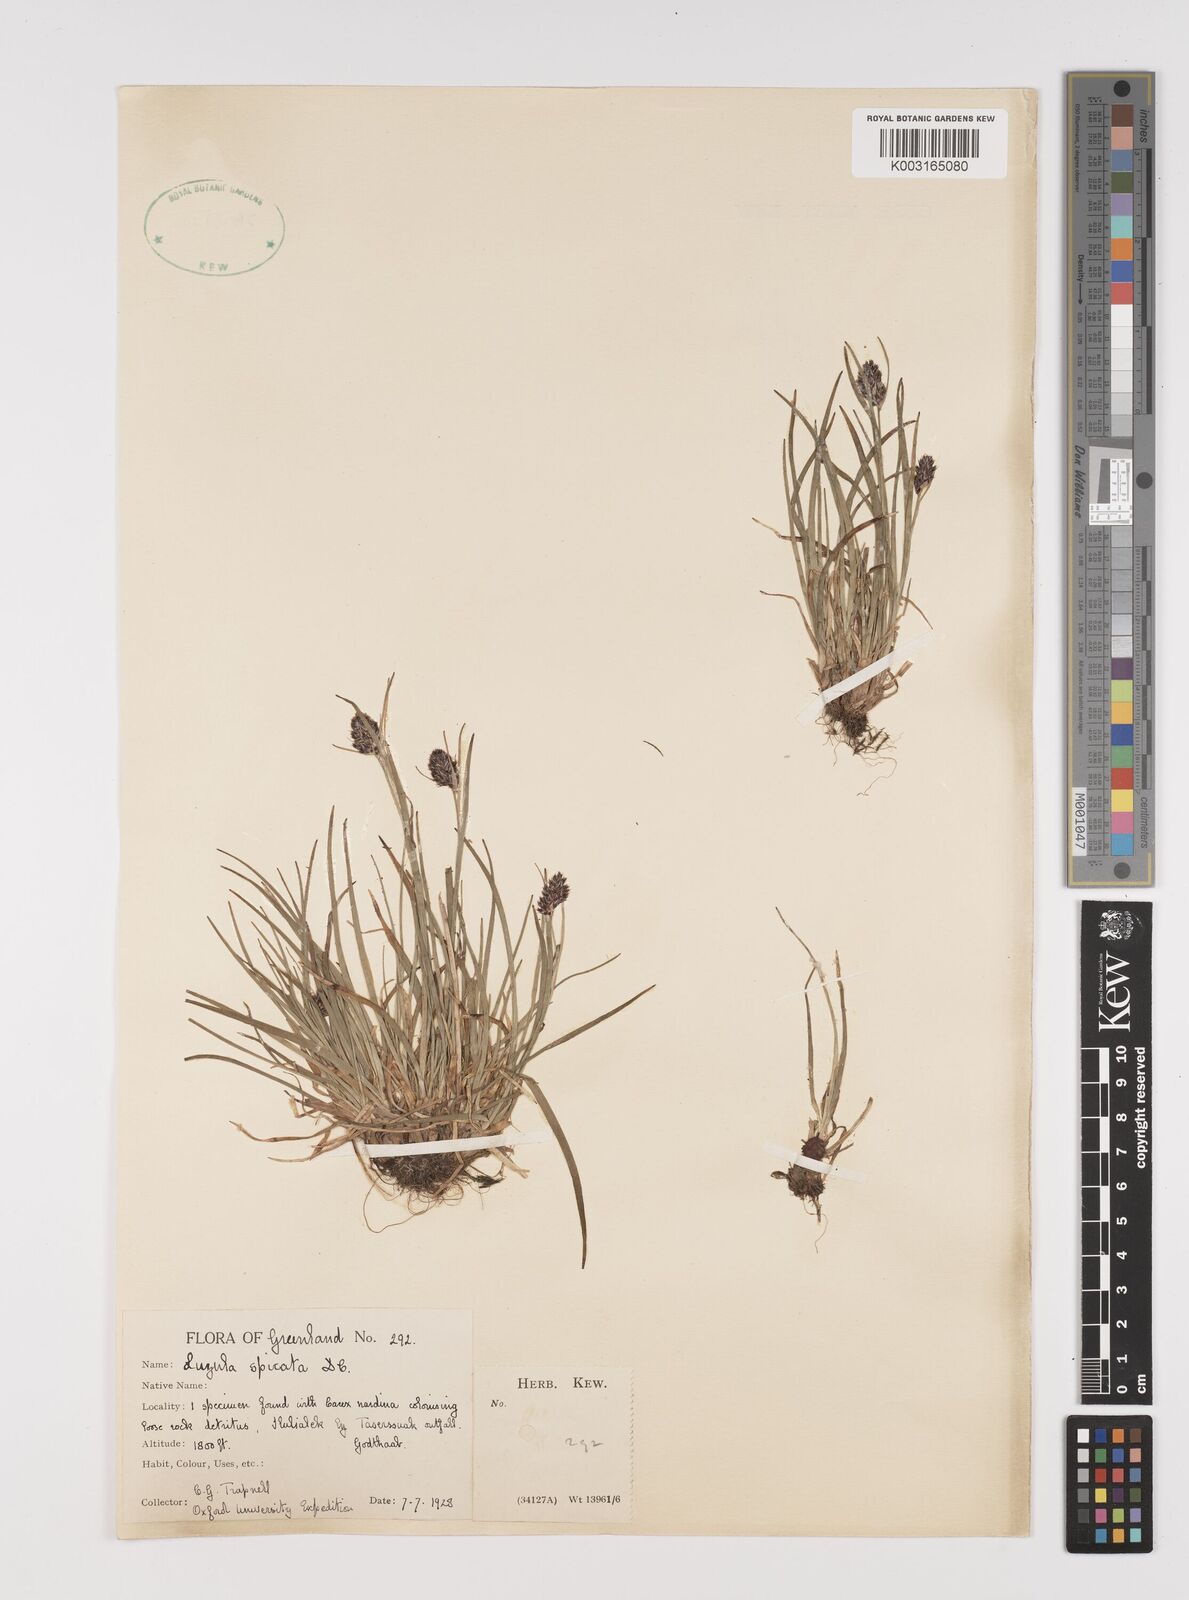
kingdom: Plantae
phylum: Tracheophyta
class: Liliopsida
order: Poales
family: Juncaceae
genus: Luzula
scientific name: Luzula spicata
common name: Spiked wood-rush
